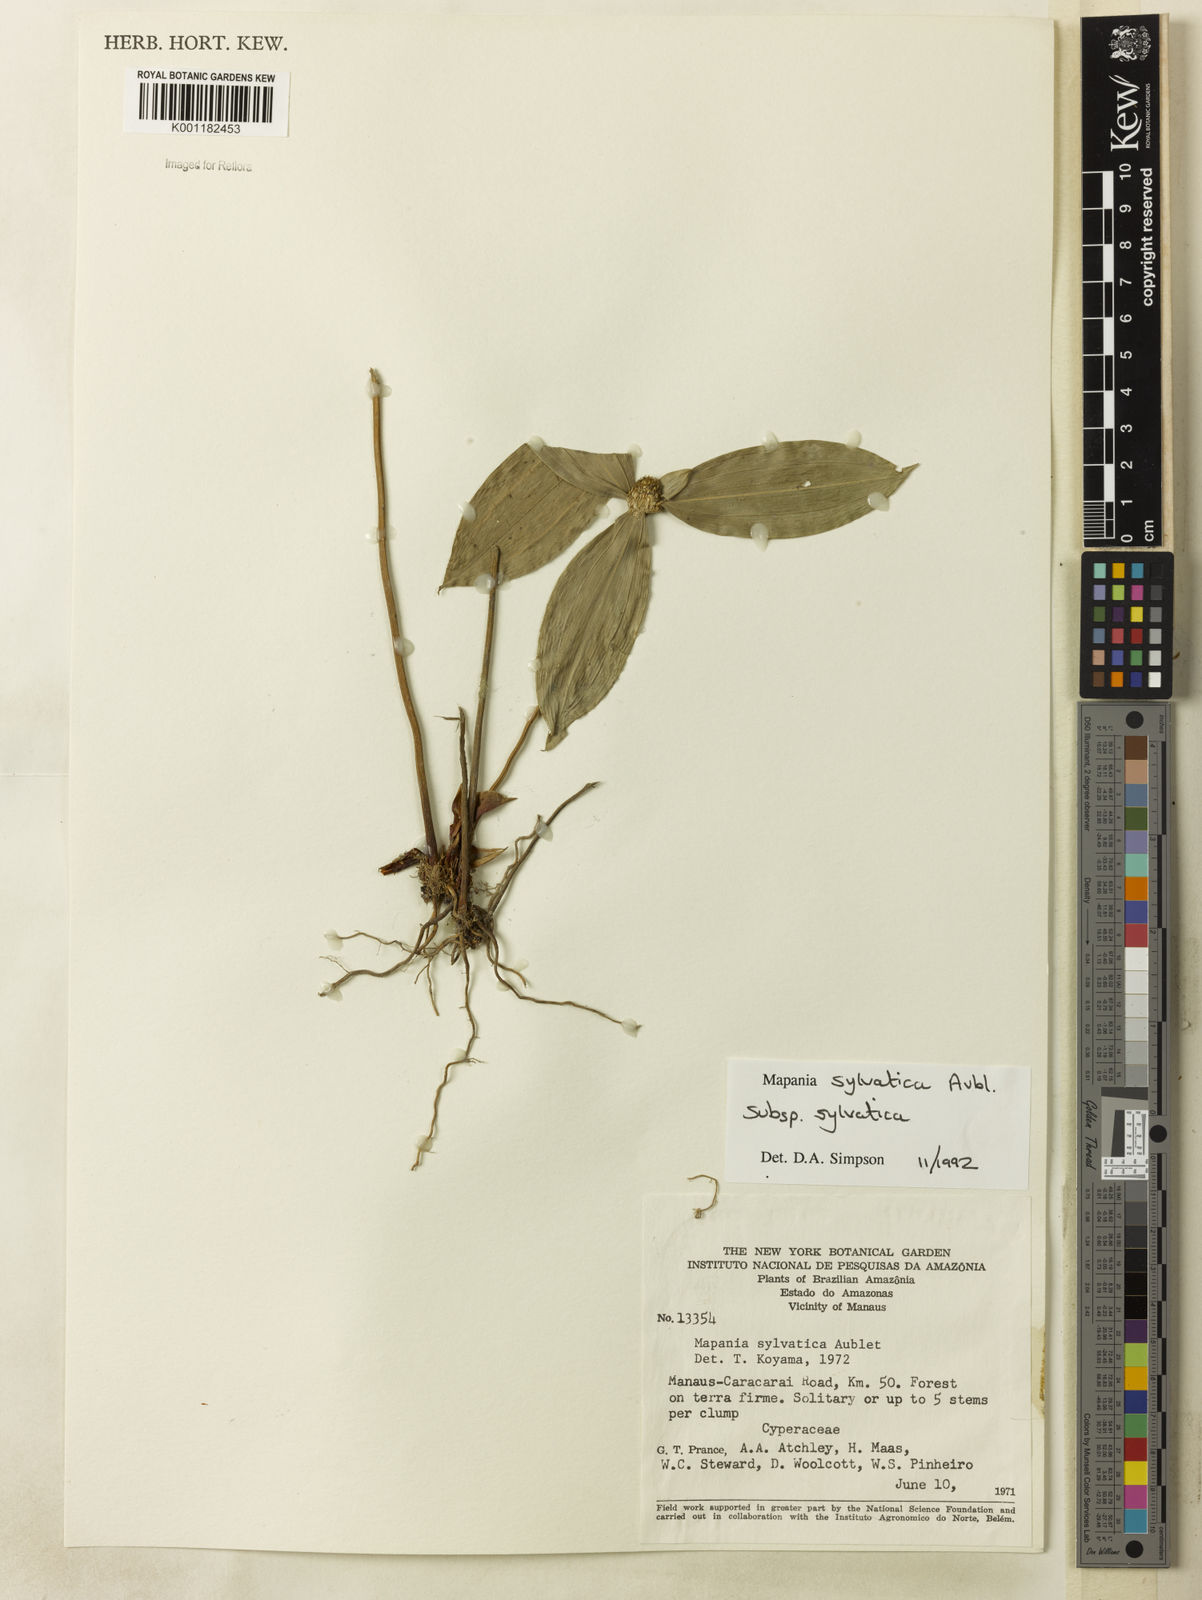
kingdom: Plantae
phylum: Tracheophyta
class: Liliopsida
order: Poales
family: Cyperaceae
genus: Mapania
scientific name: Mapania sylvatica
